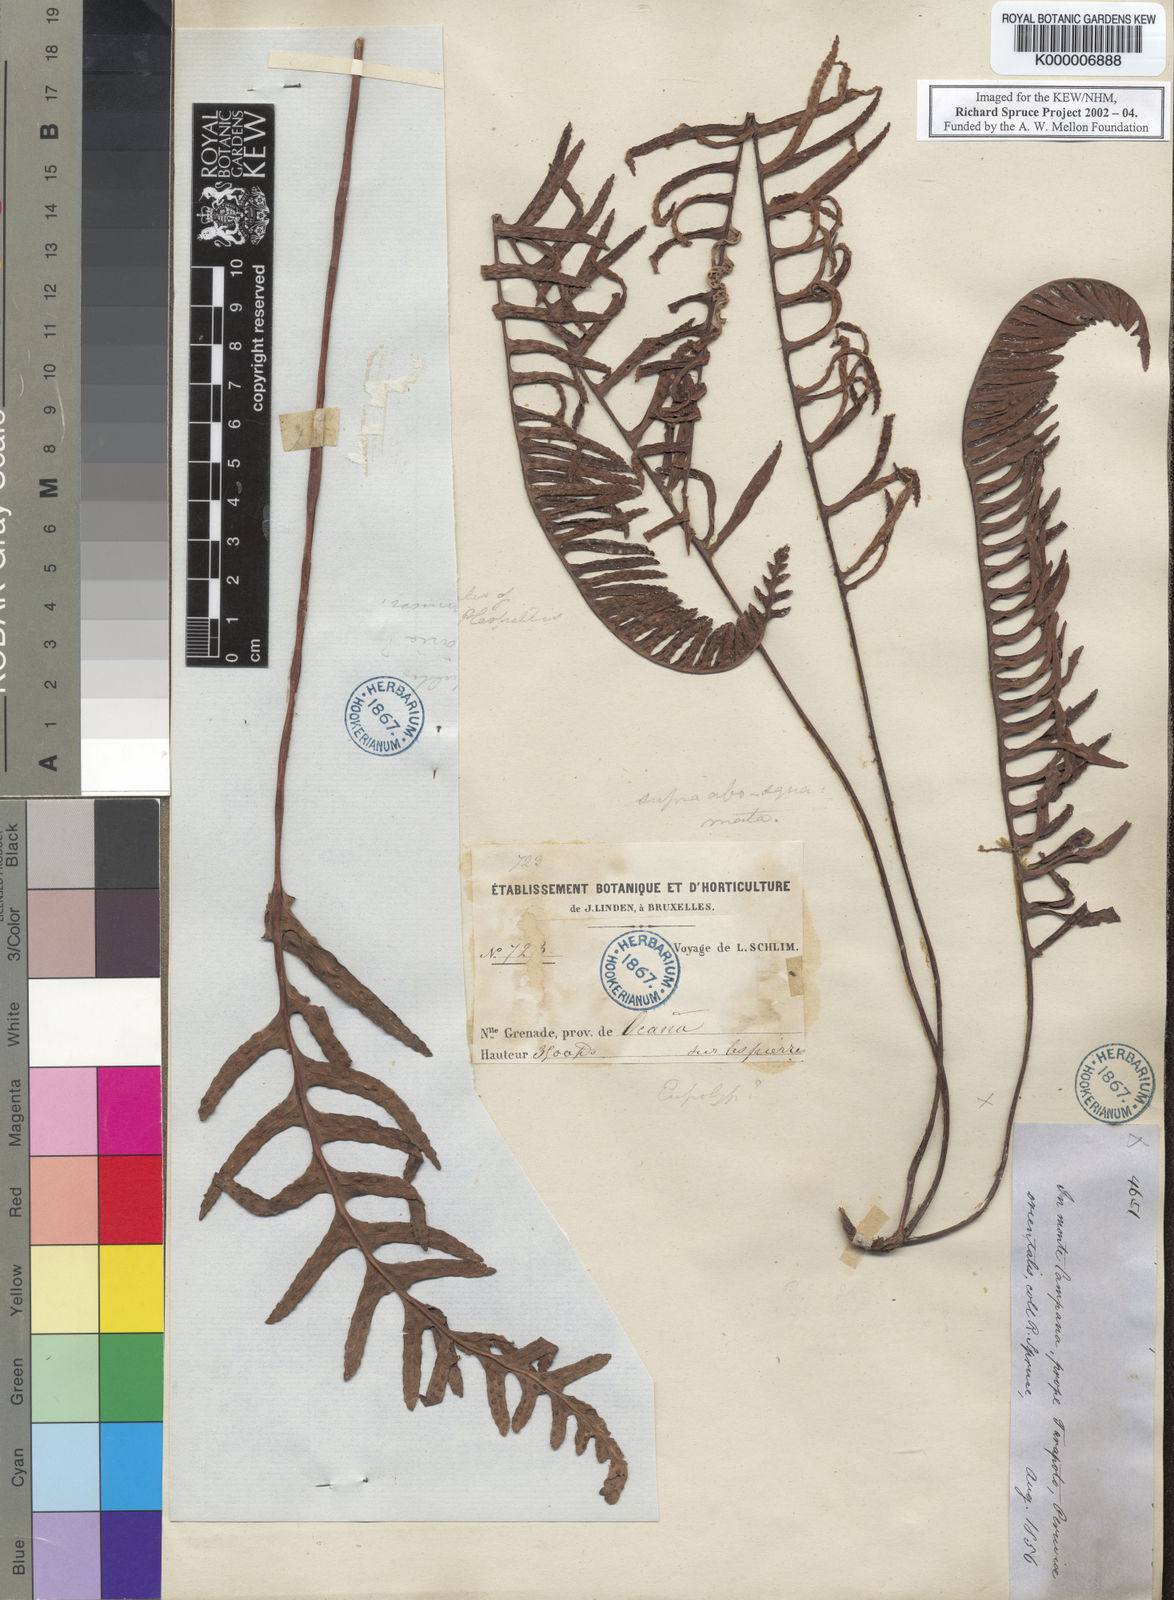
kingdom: Plantae
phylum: Tracheophyta
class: Polypodiopsida
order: Polypodiales
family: Polypodiaceae
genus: Pecluma
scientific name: Pecluma camptophyllaria
